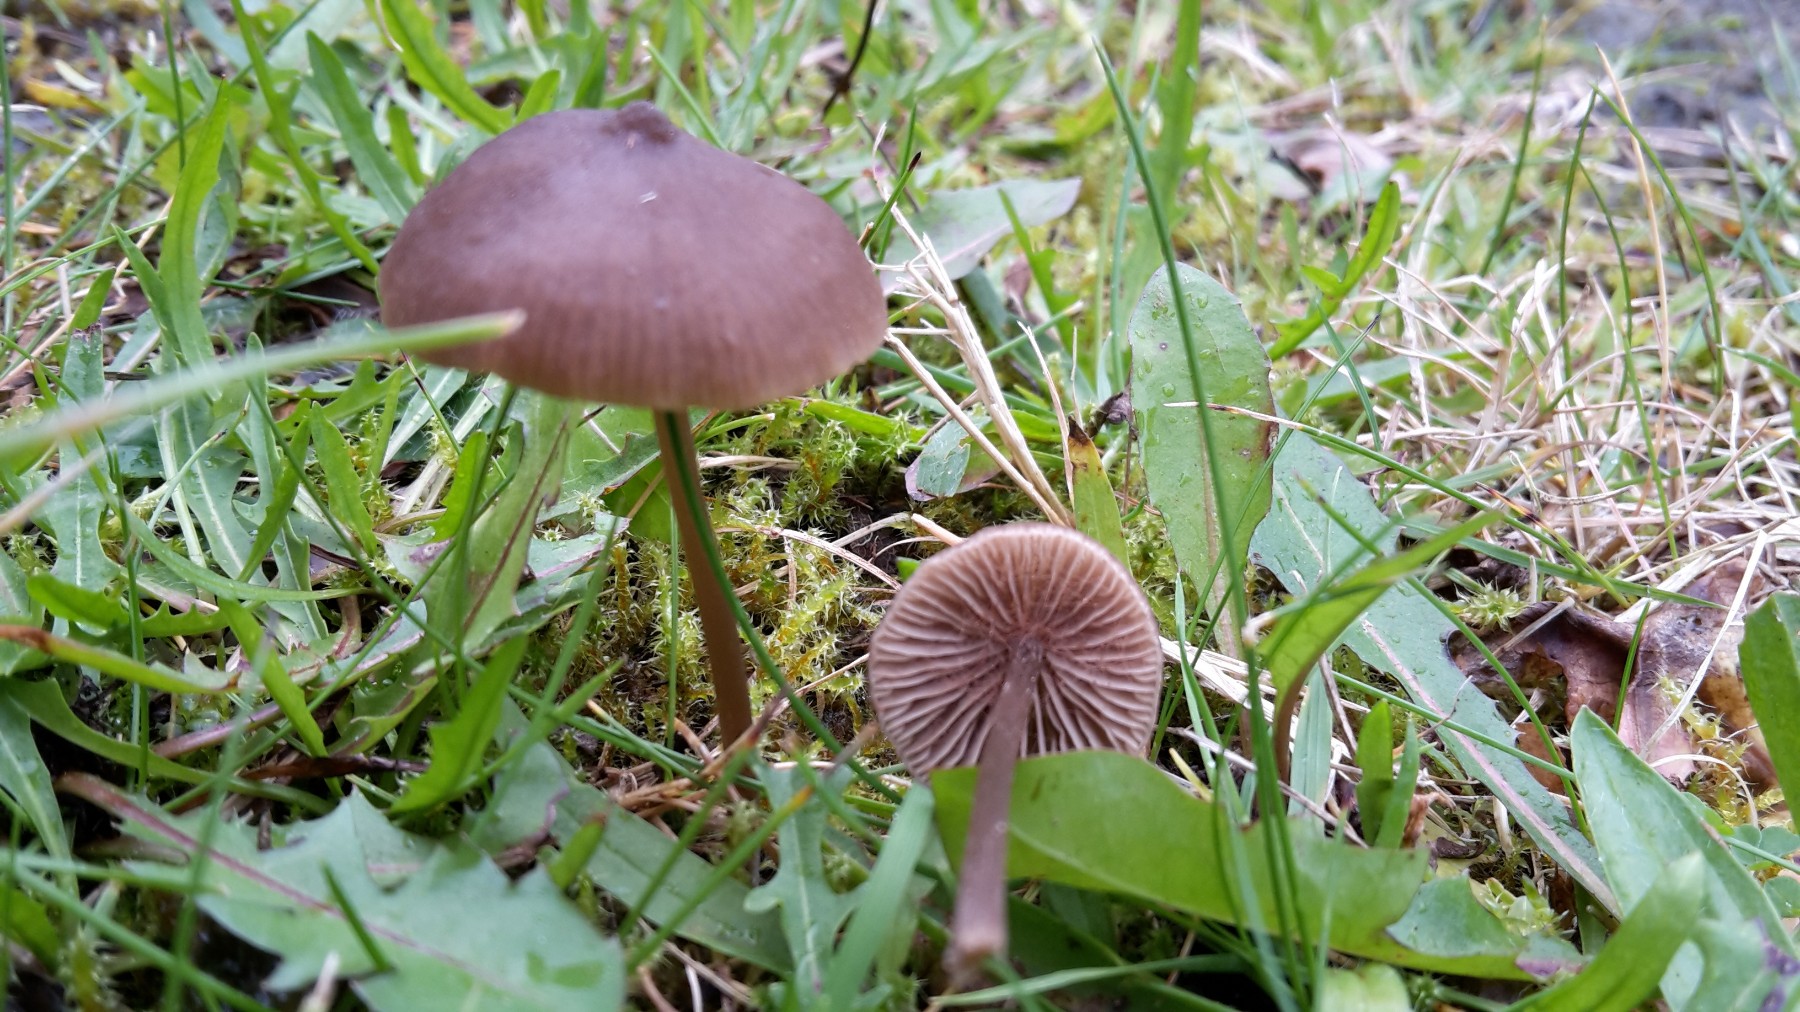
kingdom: Fungi
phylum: Basidiomycota
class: Agaricomycetes
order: Agaricales
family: Entolomataceae
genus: Entoloma
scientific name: Entoloma clandestinum
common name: tykbladet rødblad
